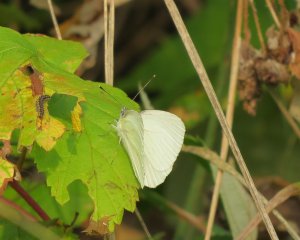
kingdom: Animalia
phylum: Arthropoda
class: Insecta
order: Lepidoptera
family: Pieridae
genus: Pieris
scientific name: Pieris oleracea
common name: Mustard White
